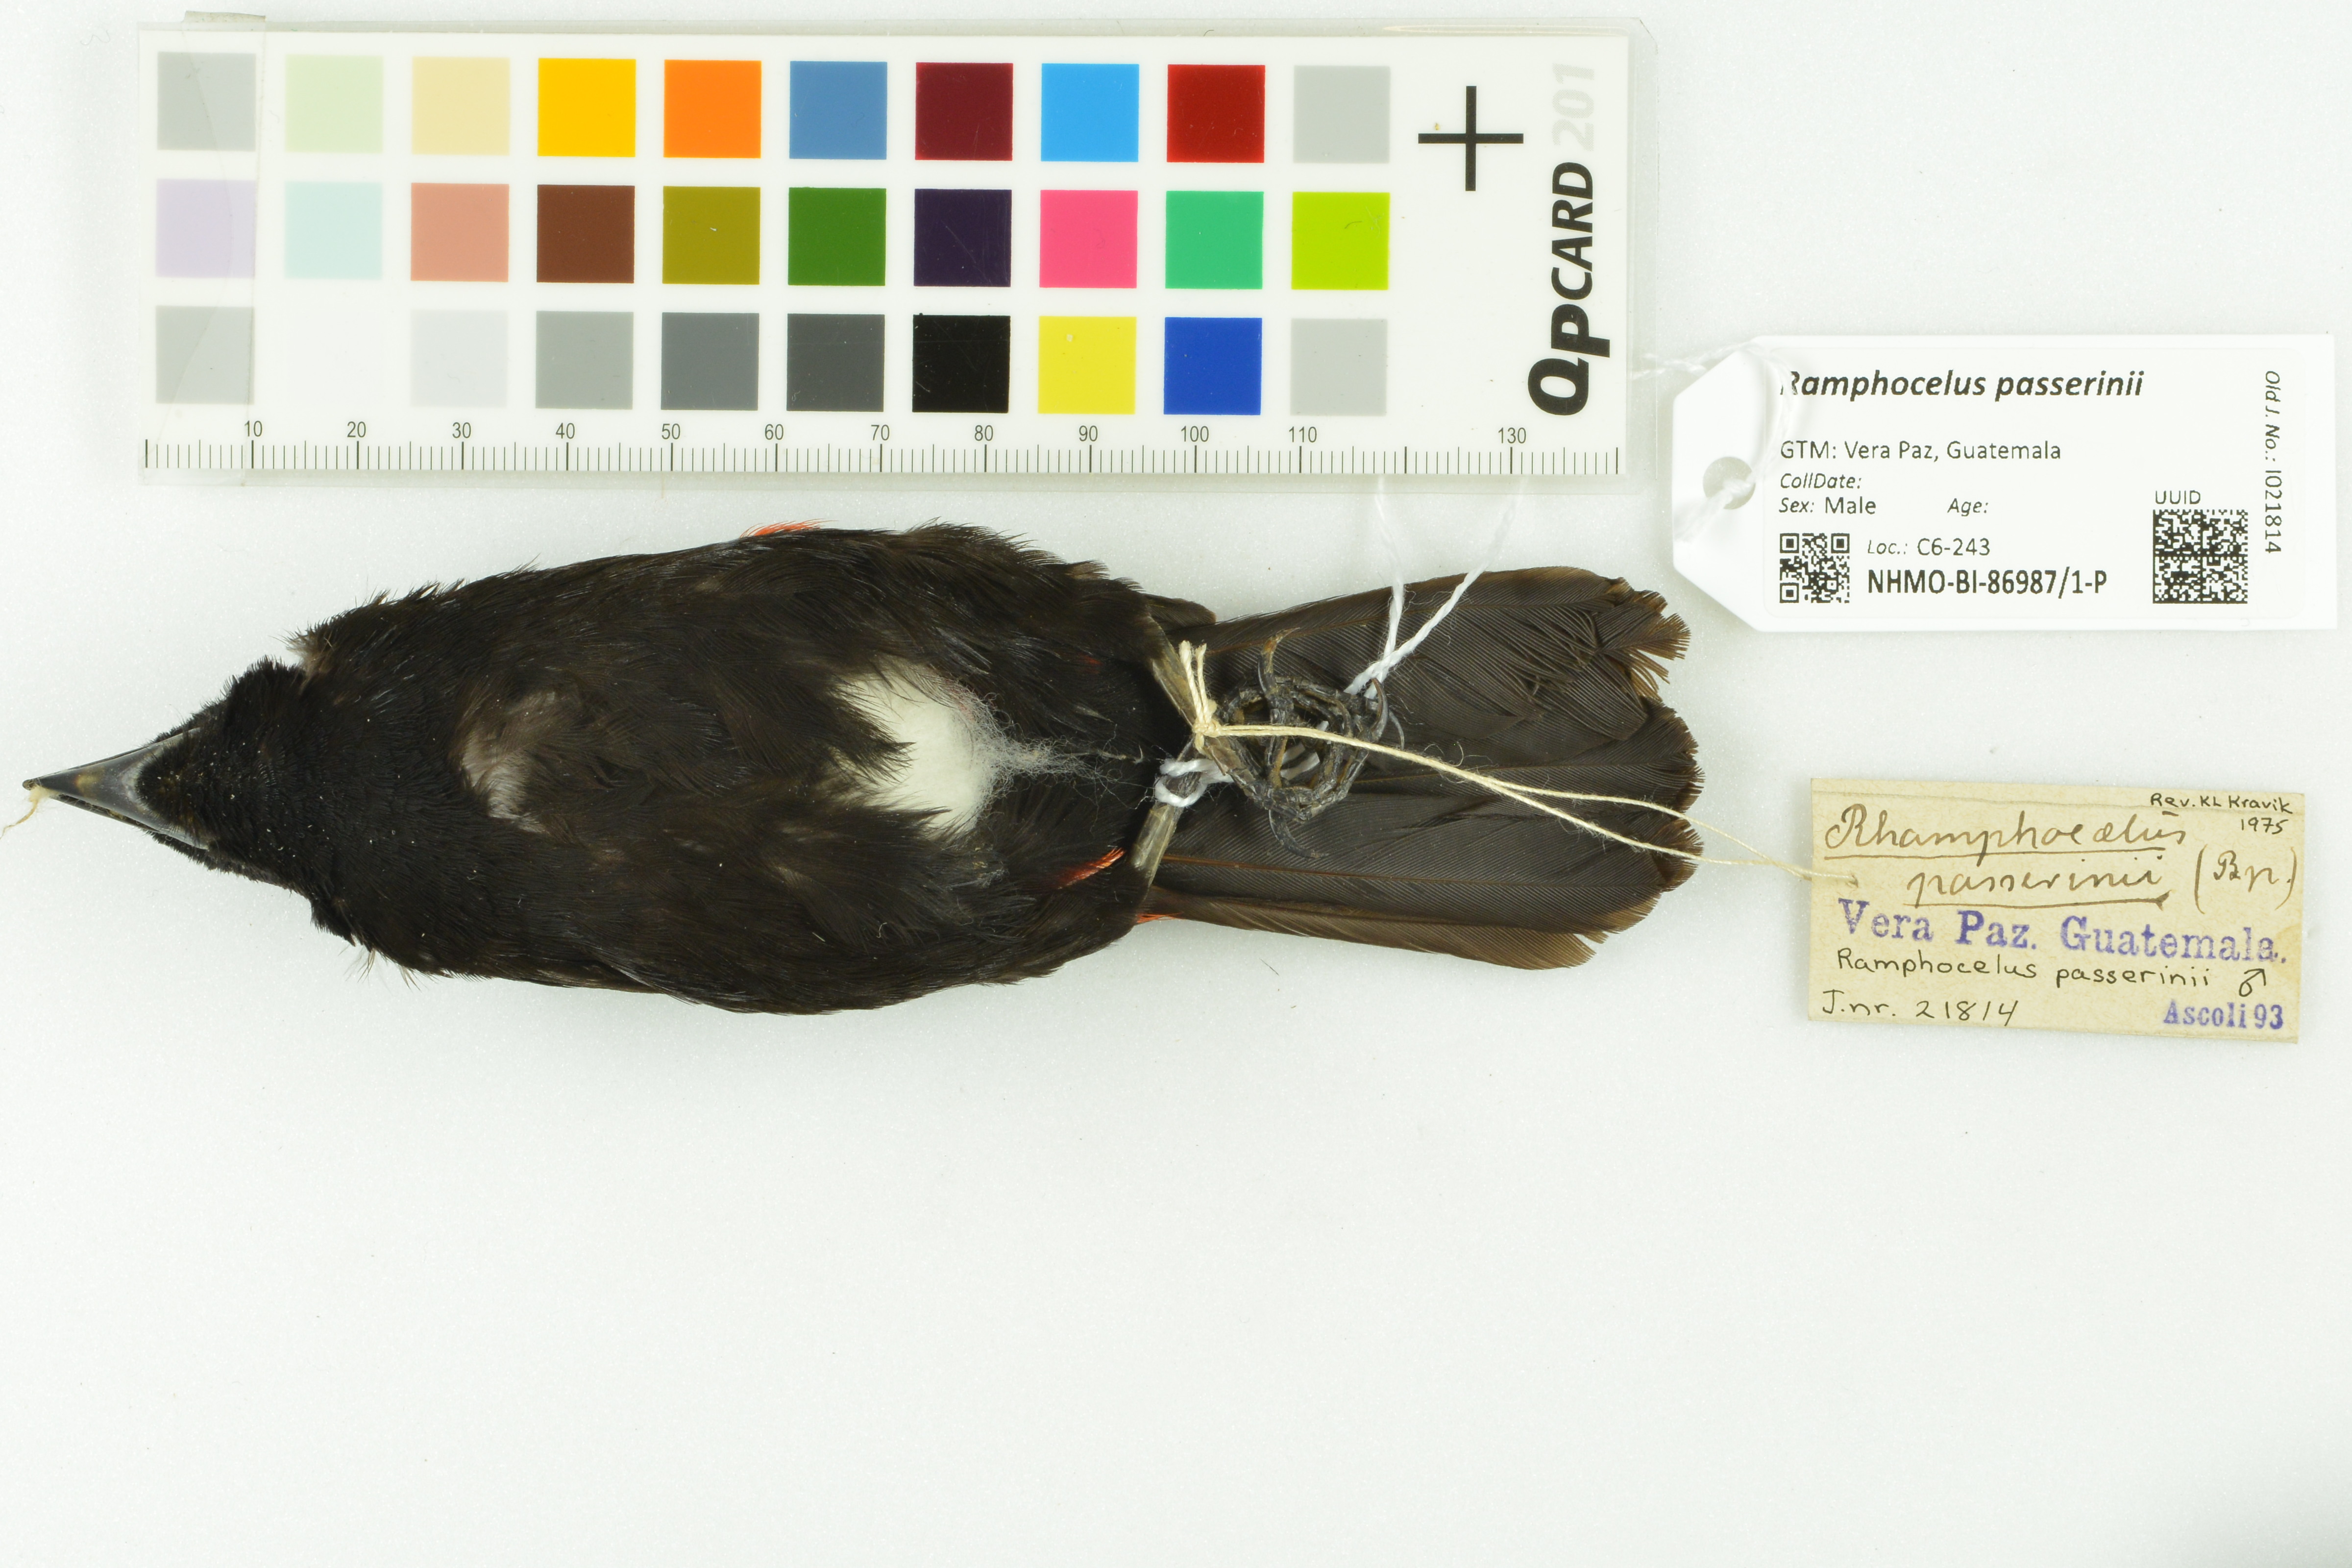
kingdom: Animalia
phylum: Chordata
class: Aves
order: Passeriformes
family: Thraupidae
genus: Ramphocelus
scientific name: Ramphocelus passerinii
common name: Passerini's tanager
